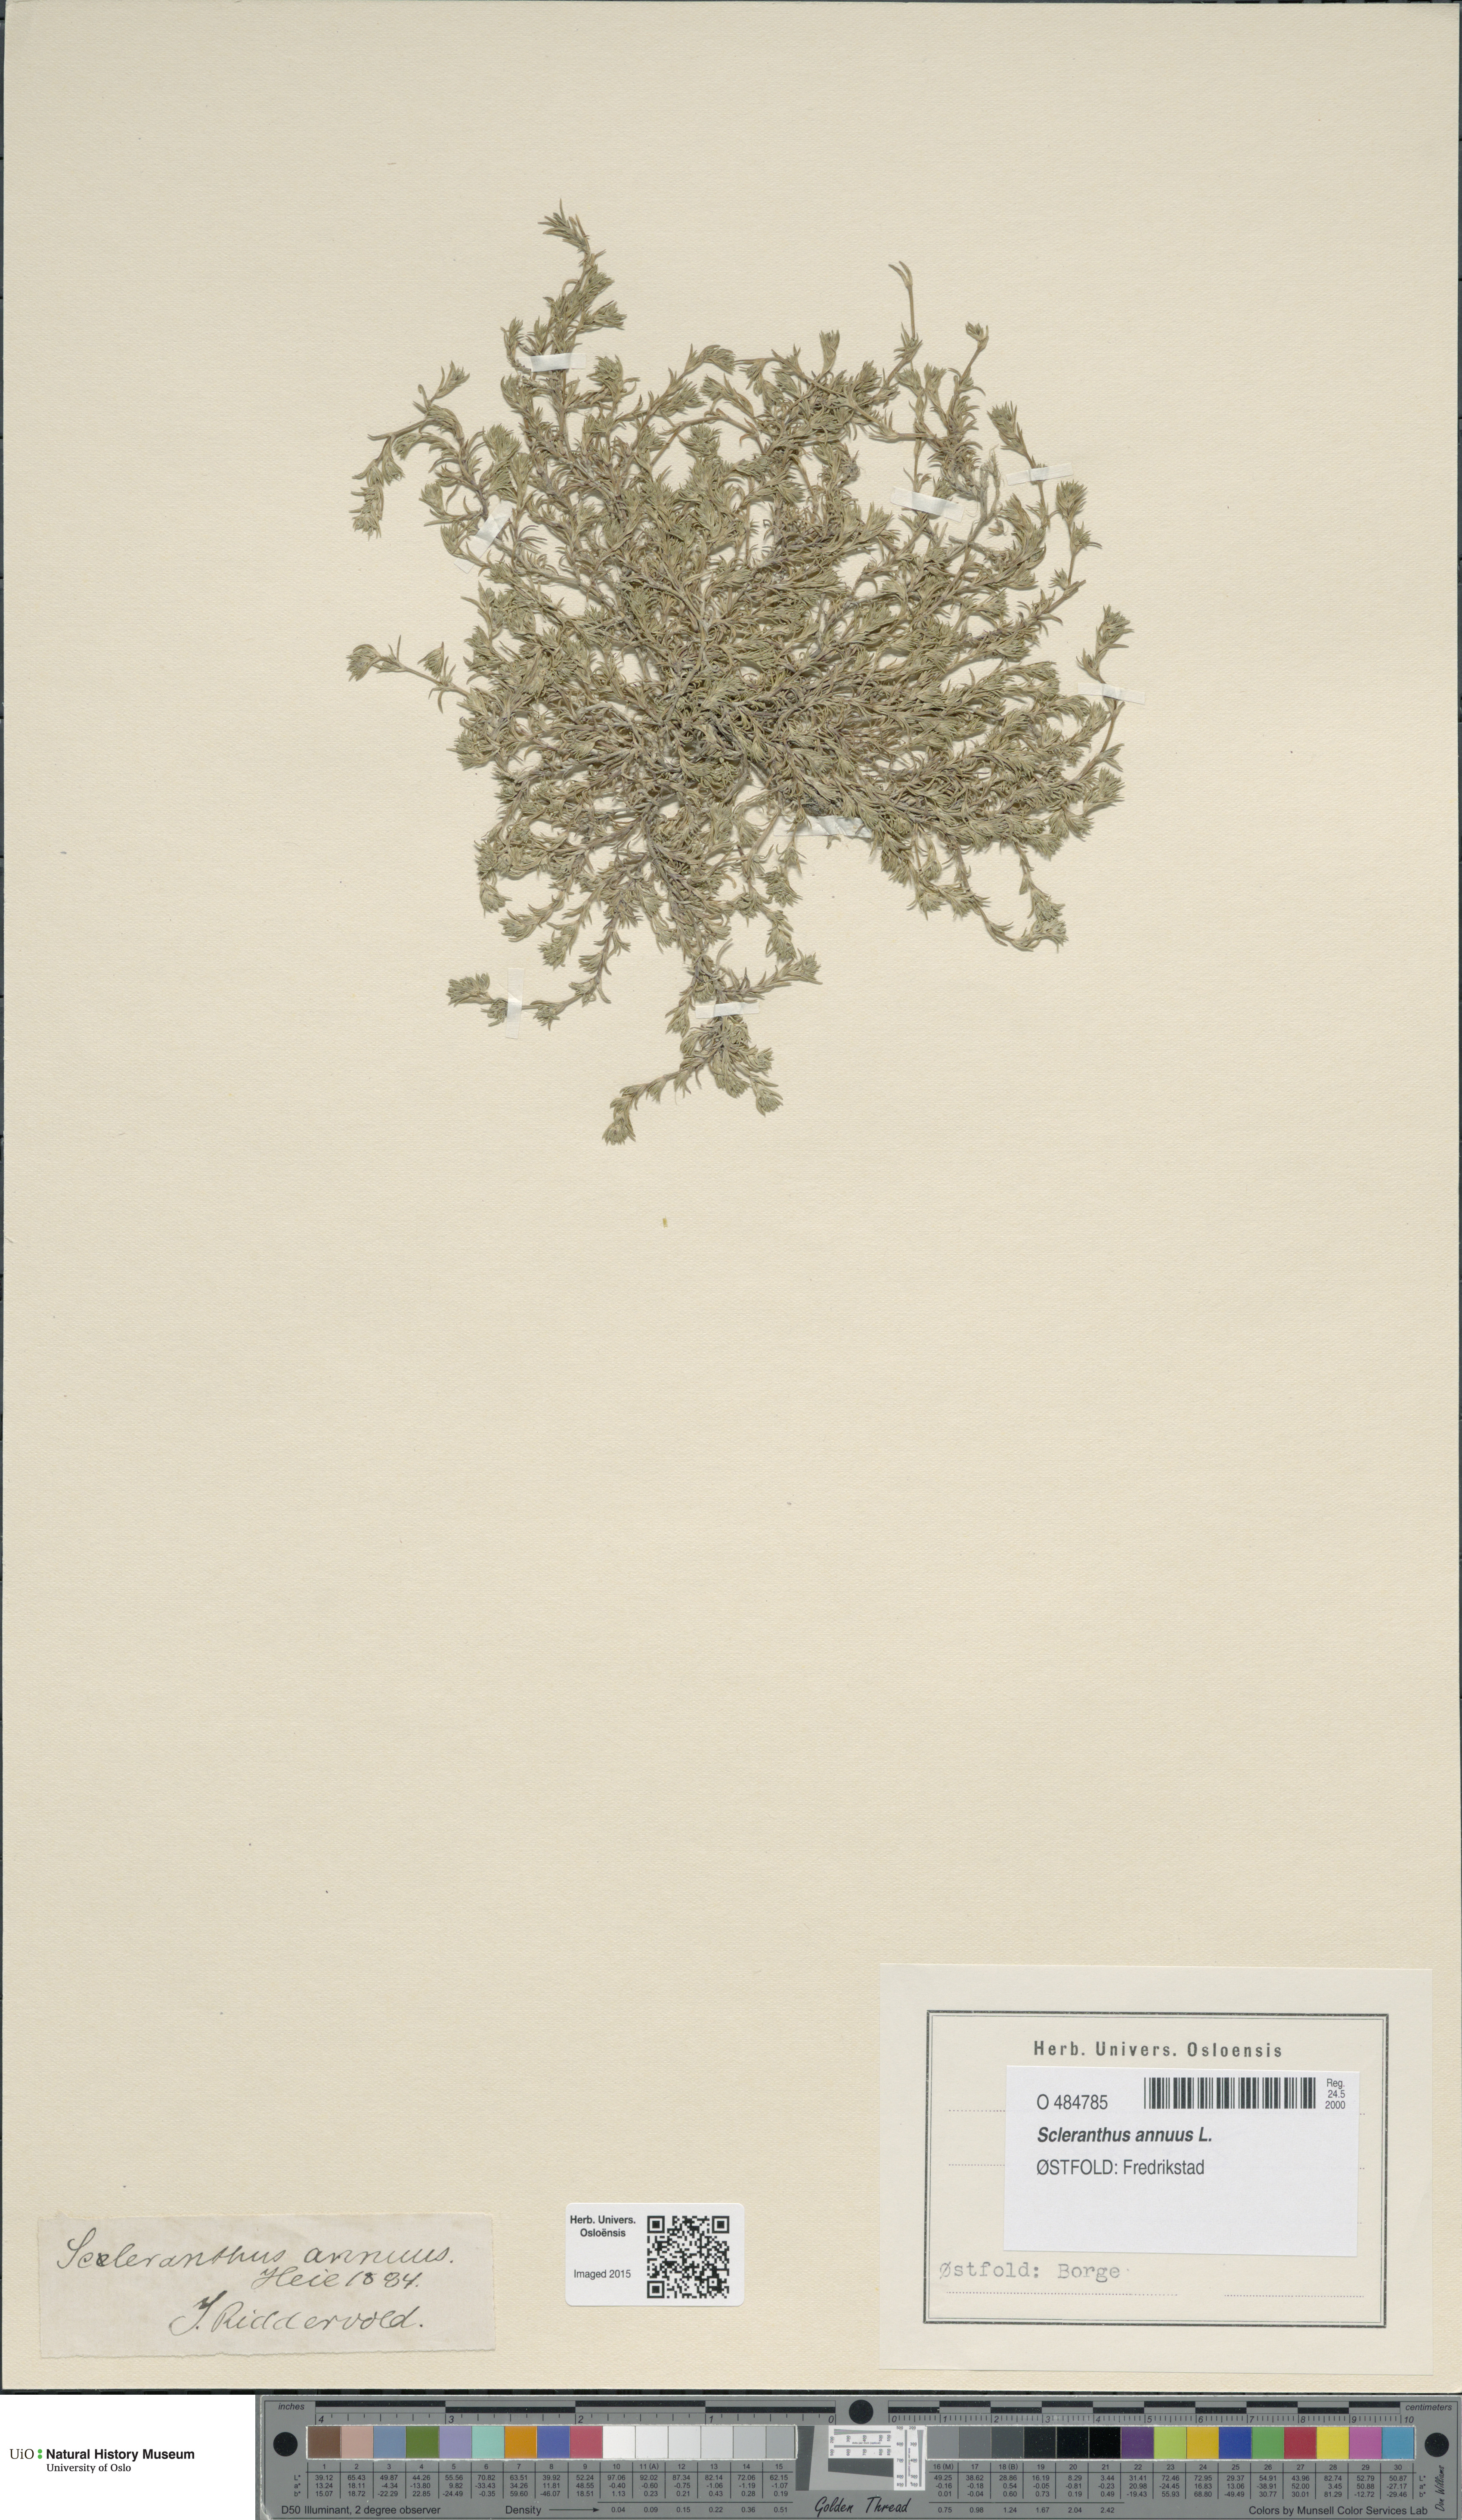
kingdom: Plantae
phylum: Tracheophyta
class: Magnoliopsida
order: Caryophyllales
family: Caryophyllaceae
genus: Scleranthus
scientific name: Scleranthus annuus
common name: Annual knawel
